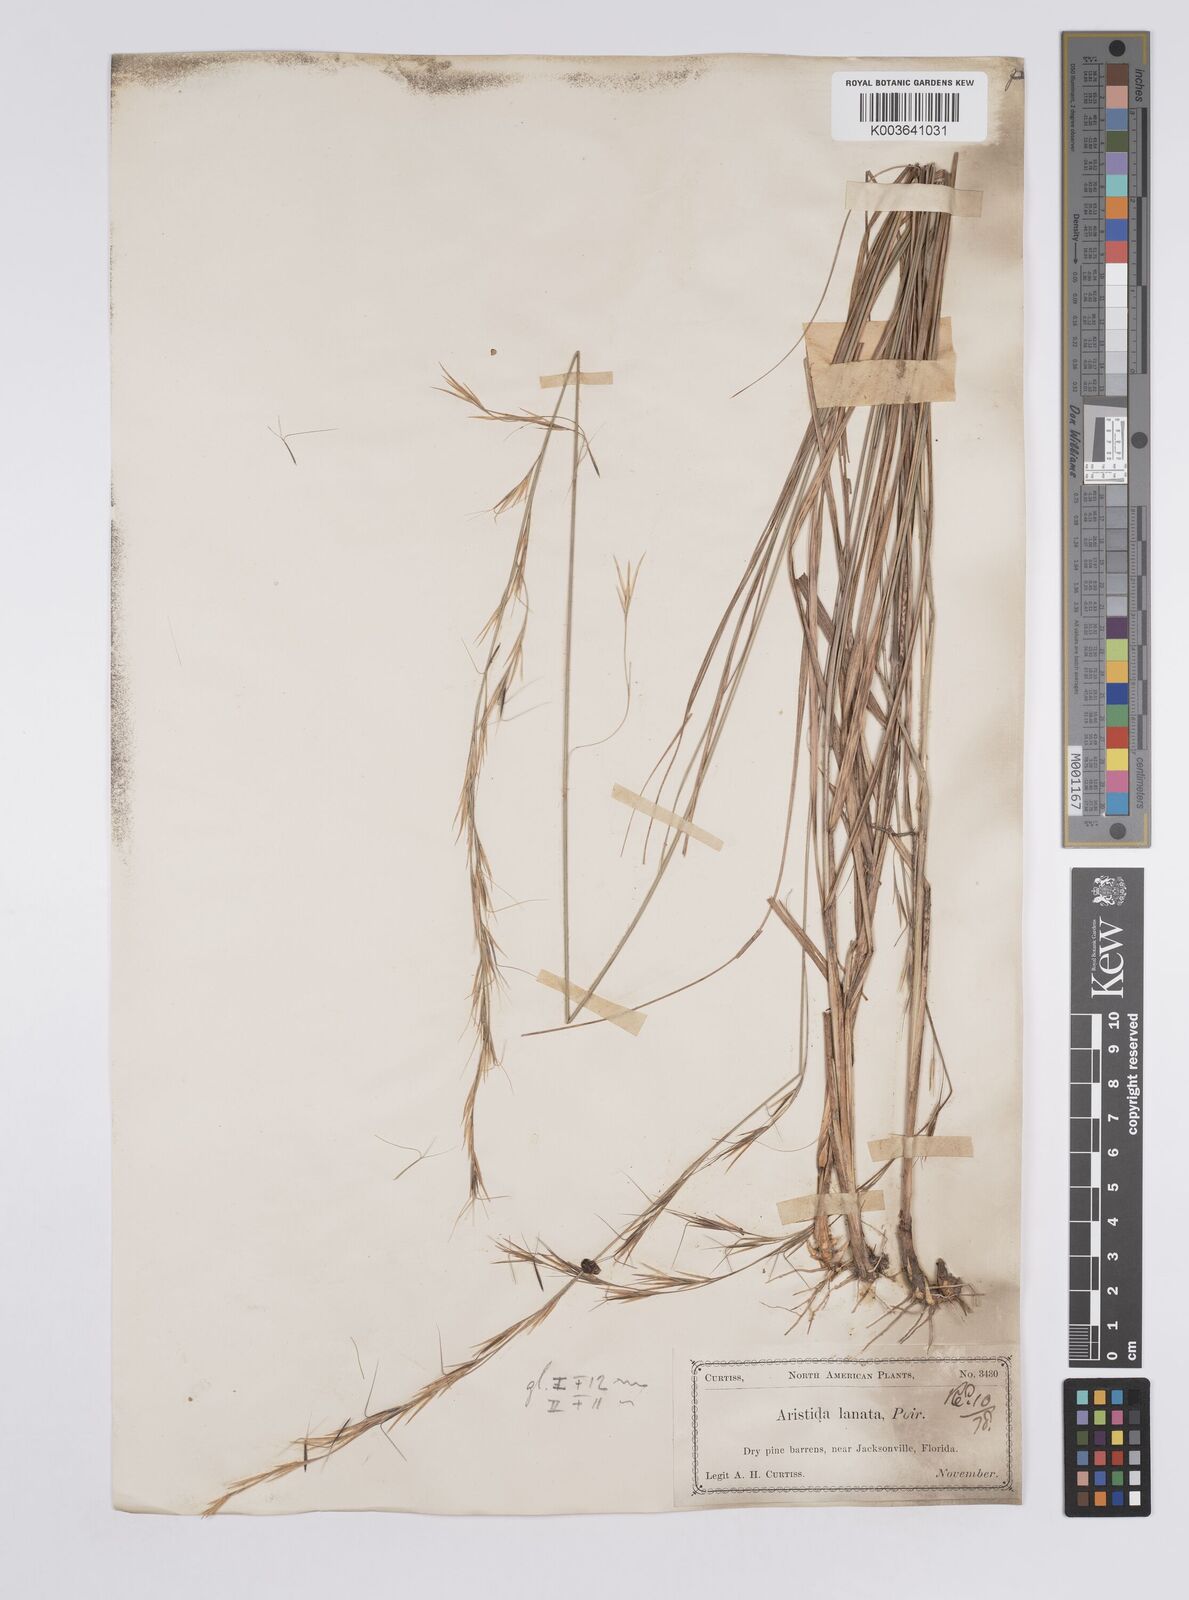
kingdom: Plantae
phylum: Tracheophyta
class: Liliopsida
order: Poales
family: Poaceae
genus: Aristida
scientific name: Aristida lanosa
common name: Woolly three-awn
